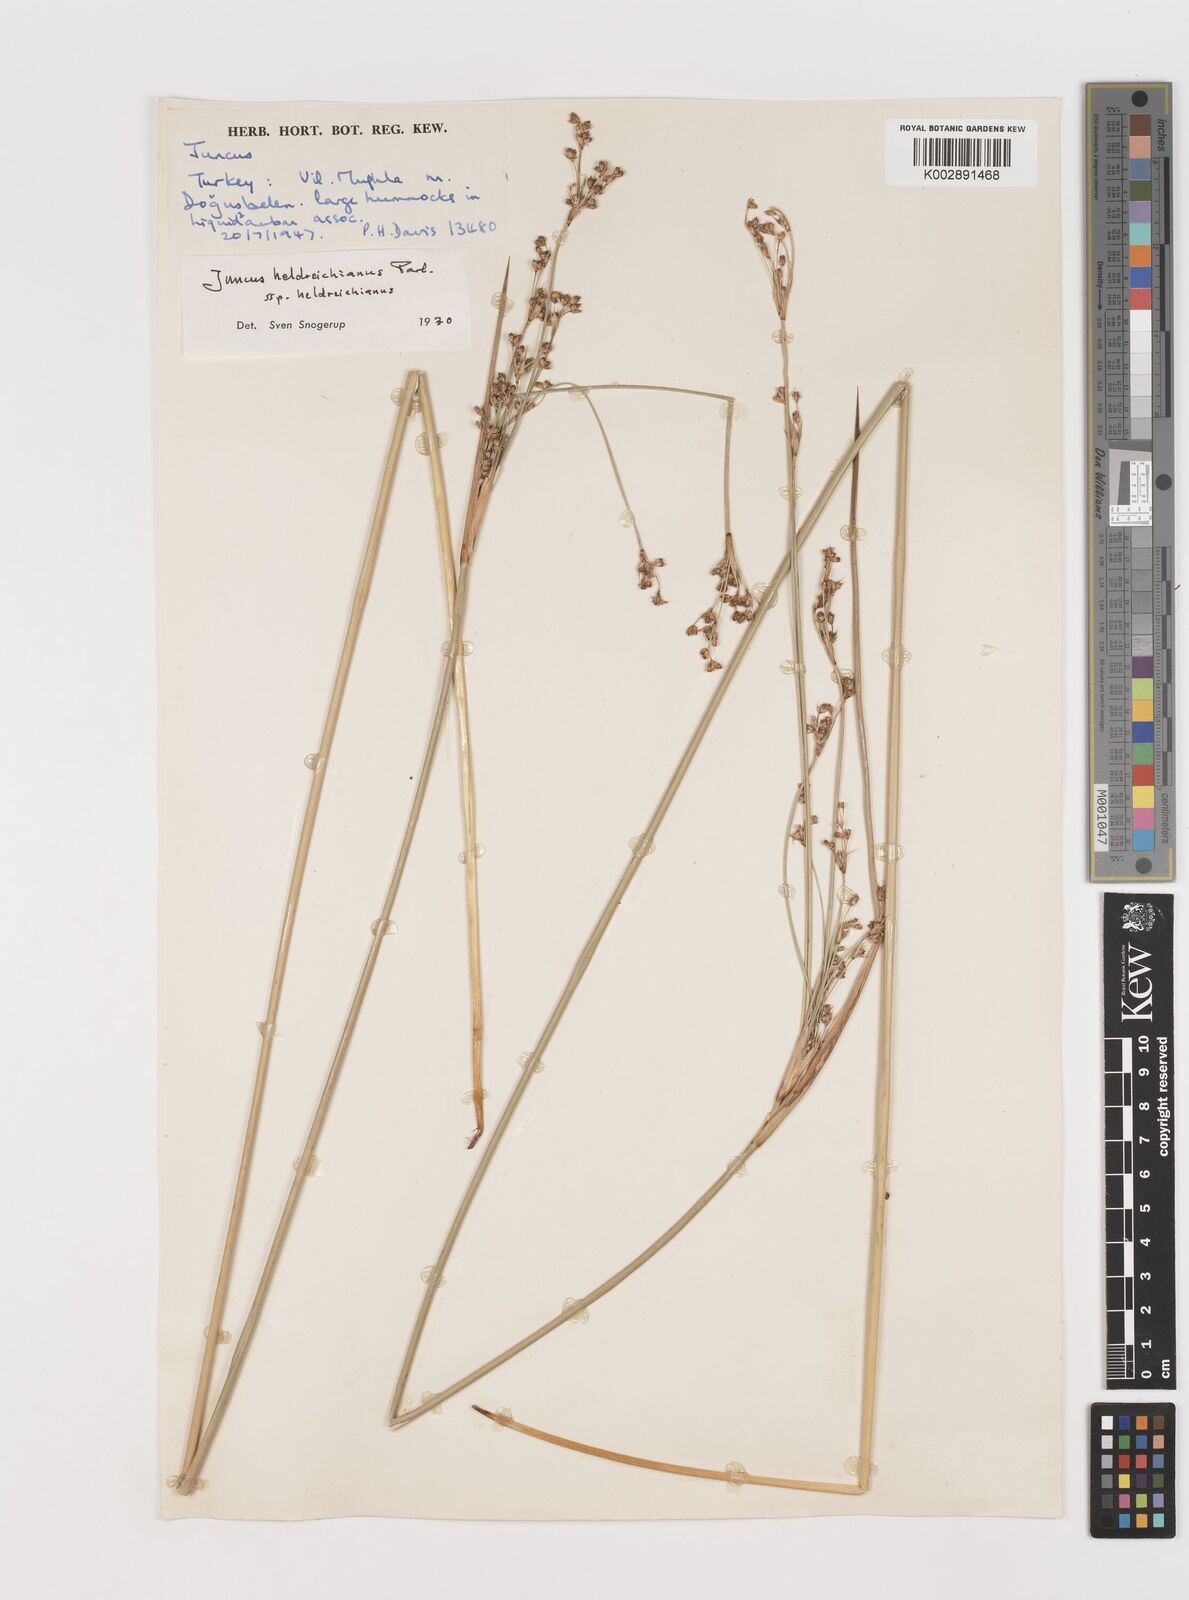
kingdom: Plantae
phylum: Tracheophyta
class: Liliopsida
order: Poales
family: Juncaceae
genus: Juncus
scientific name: Juncus heldreichianus
